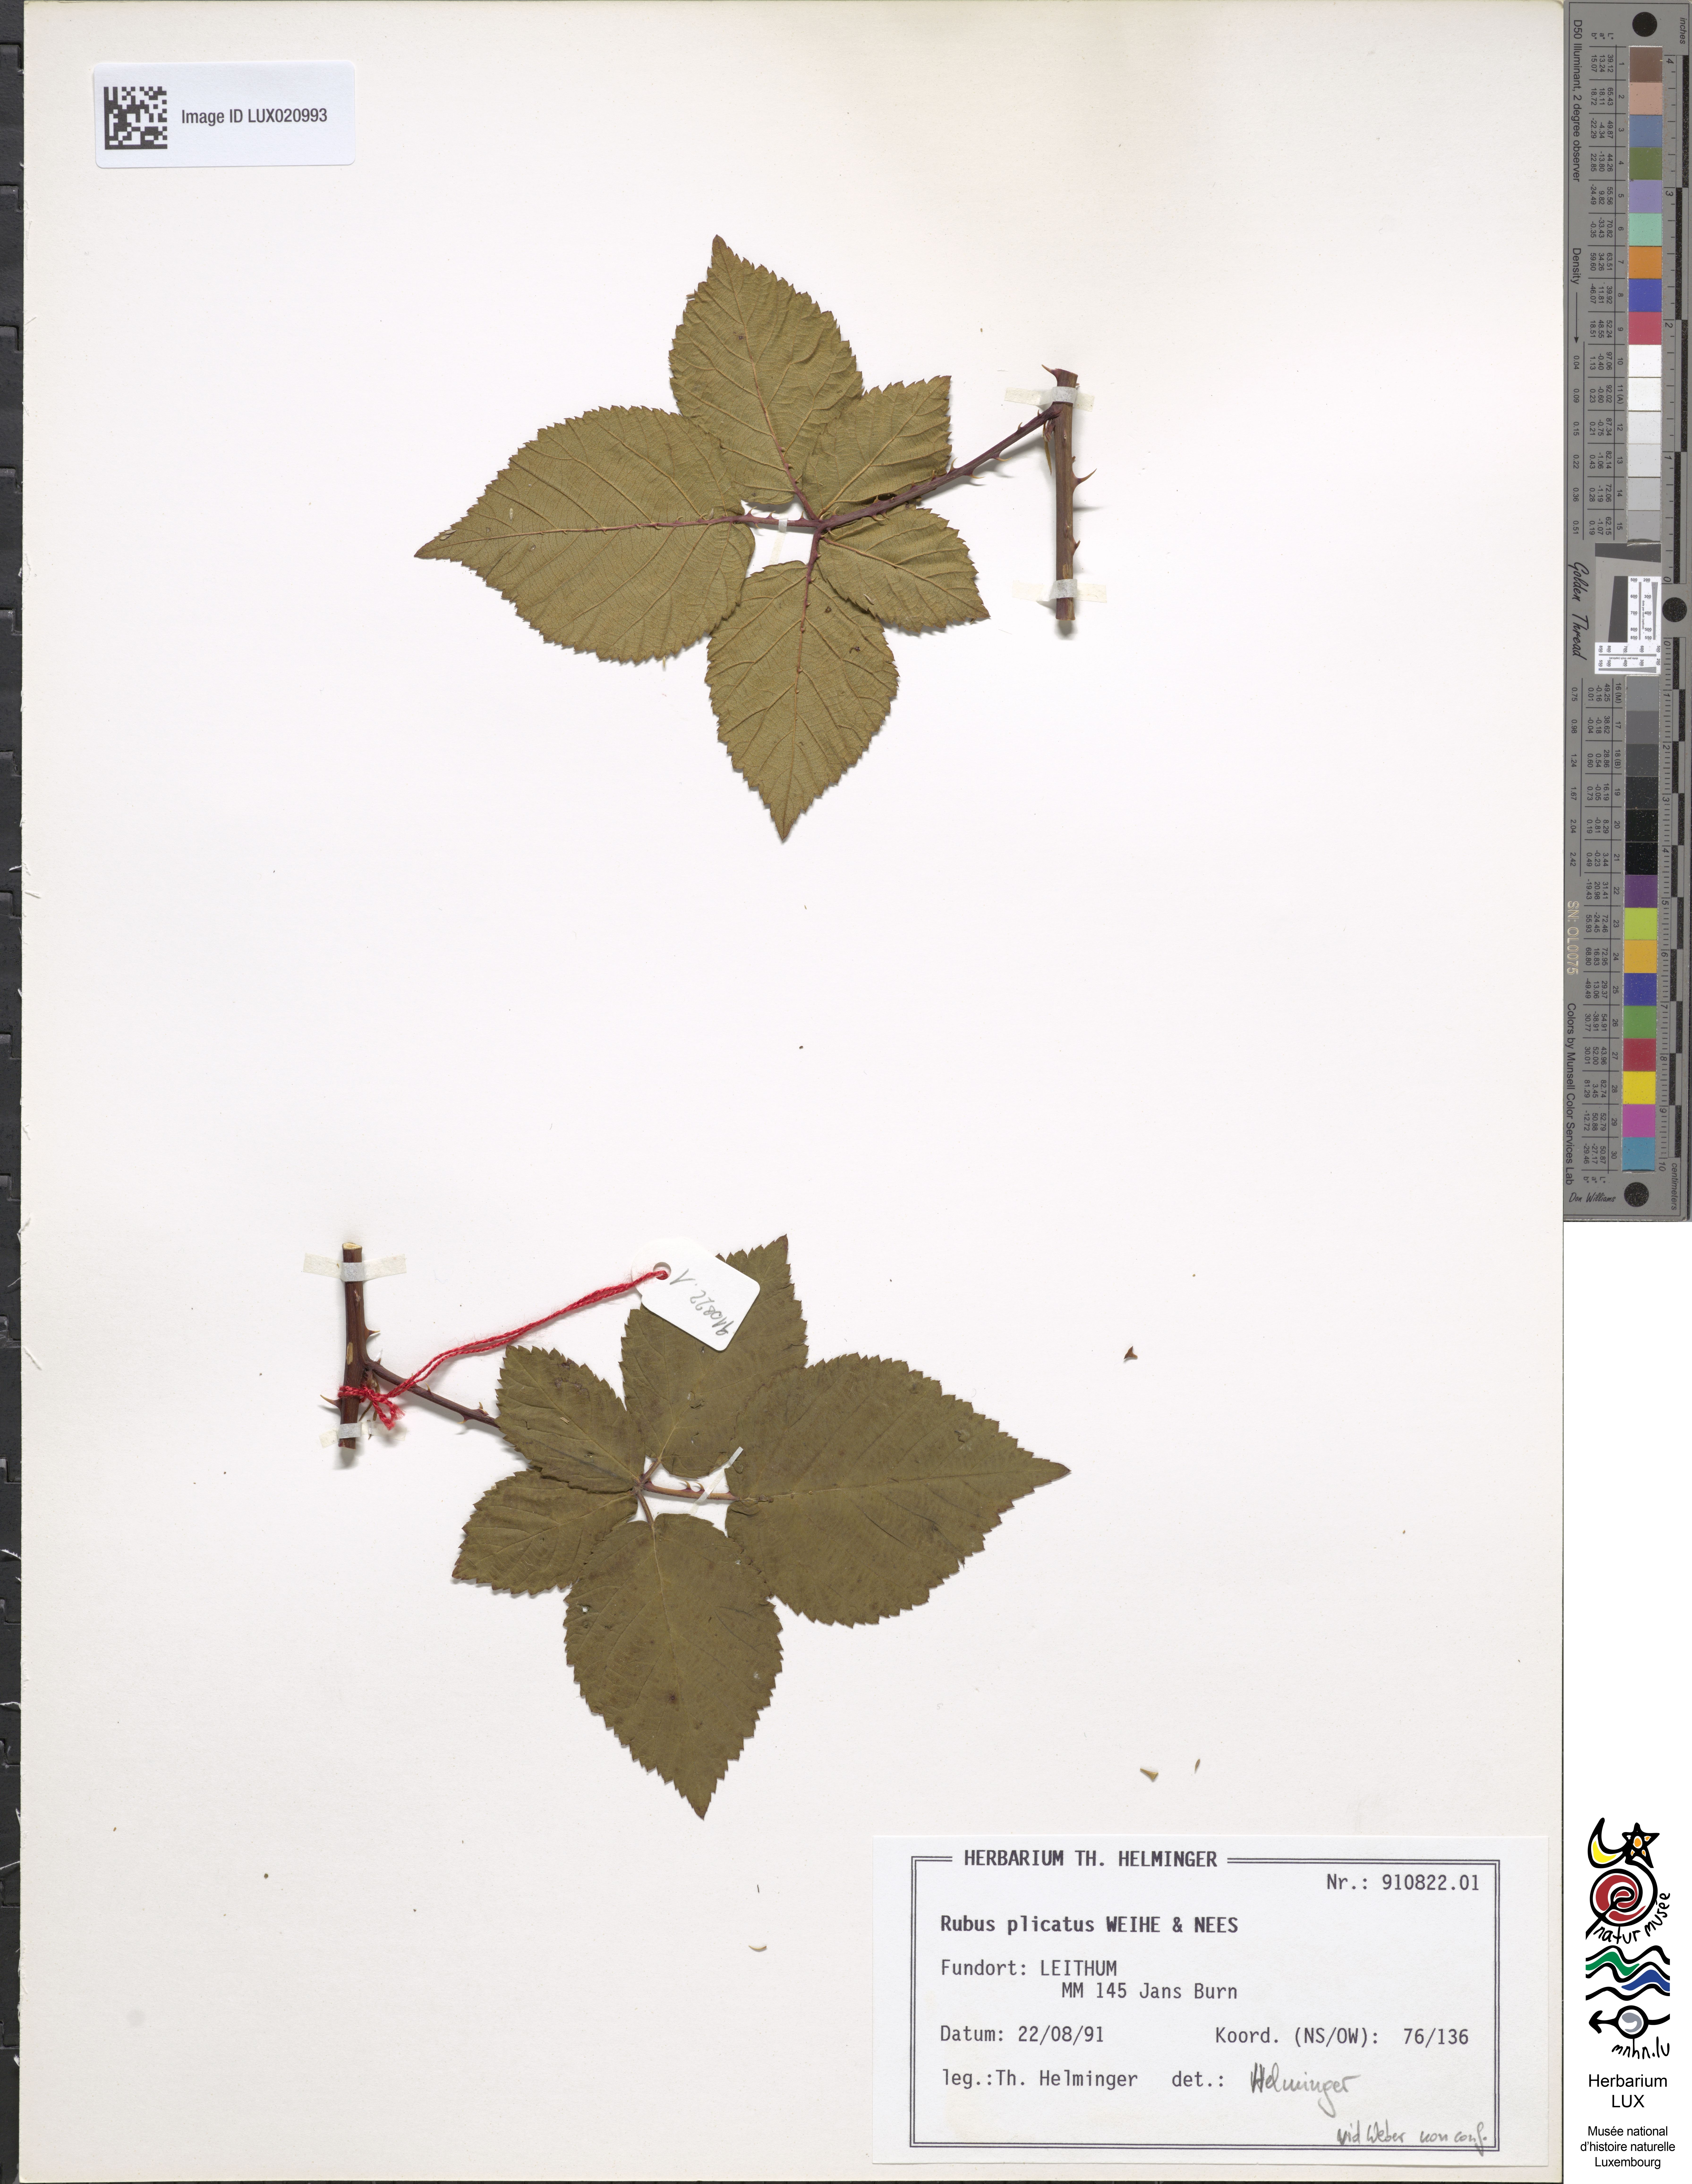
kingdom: Plantae
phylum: Tracheophyta
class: Magnoliopsida
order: Rosales
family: Rosaceae
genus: Rubus
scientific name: Rubus plicatus
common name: Plaited-leaved bramble
